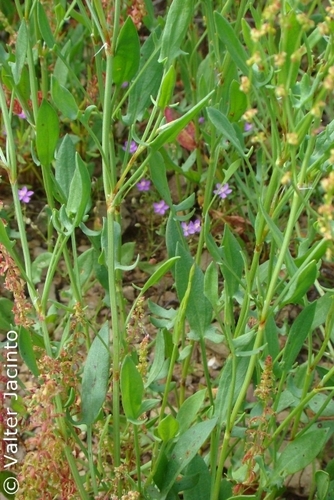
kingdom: Plantae
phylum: Tracheophyta
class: Magnoliopsida
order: Caryophyllales
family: Polygonaceae
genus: Rumex
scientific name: Rumex acetosella
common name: Common sheep sorrel
